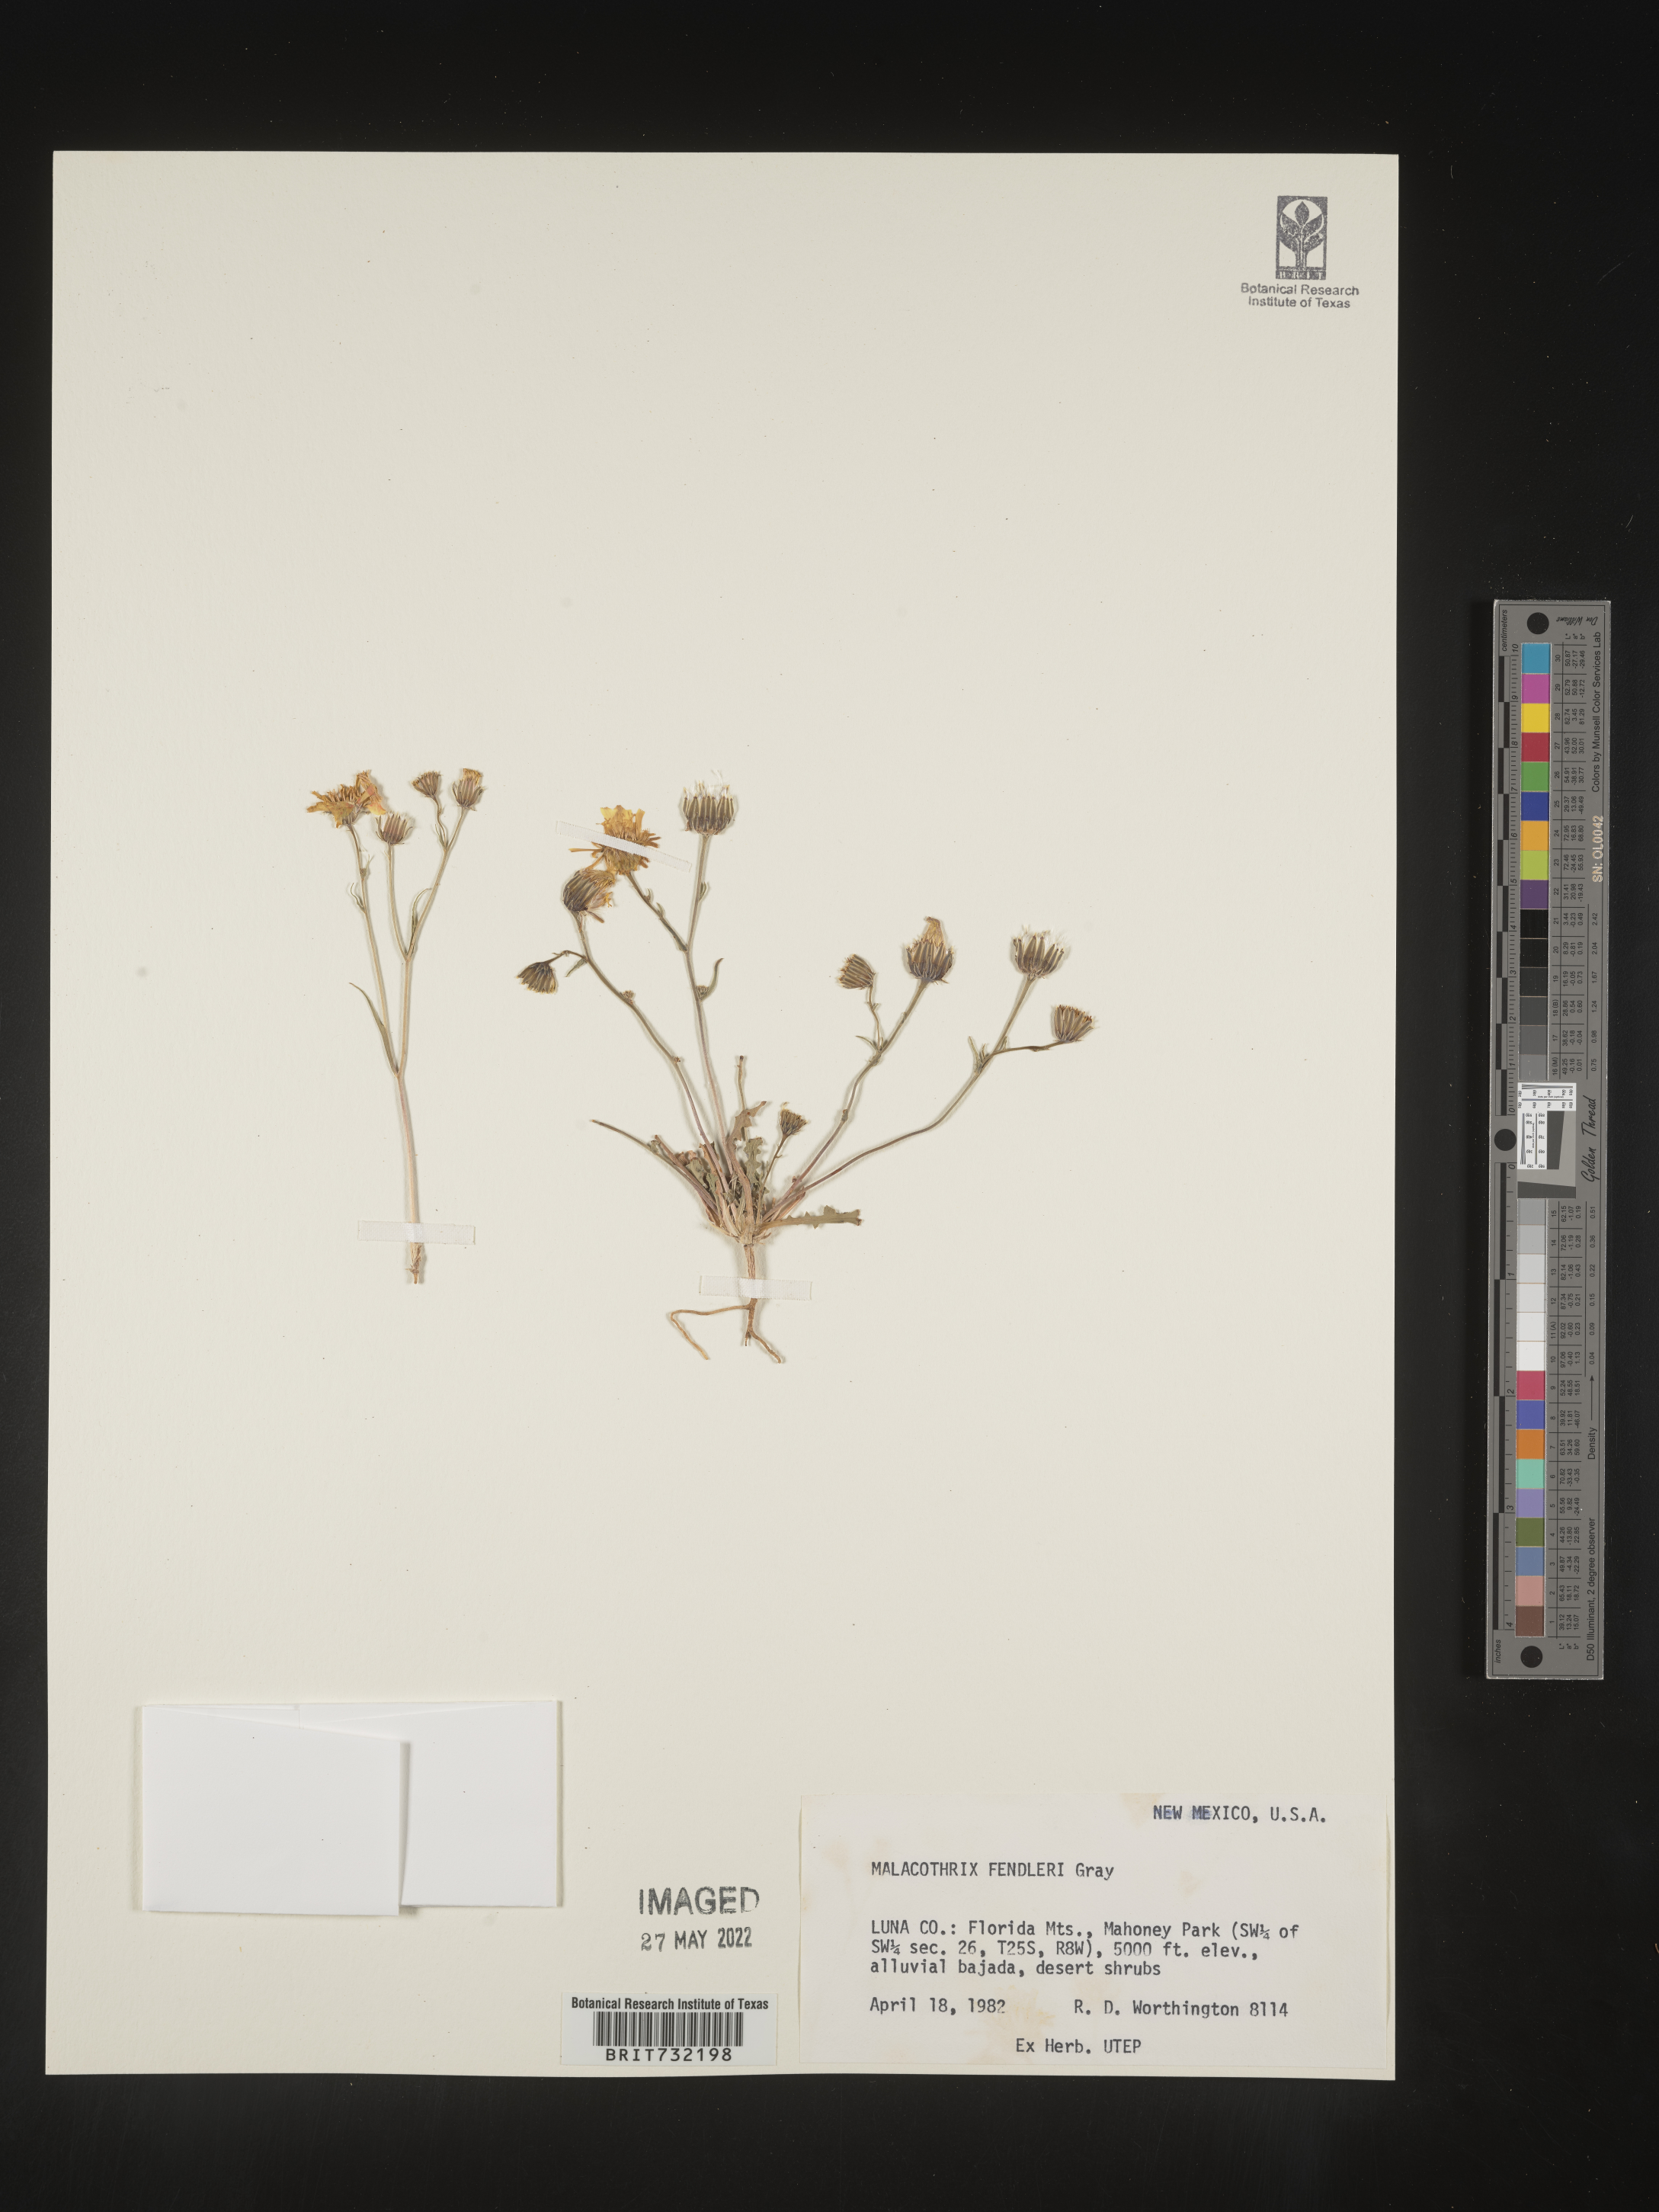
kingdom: Plantae
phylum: Tracheophyta
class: Magnoliopsida
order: Asterales
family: Asteraceae
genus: Malacothrix
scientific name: Malacothrix
